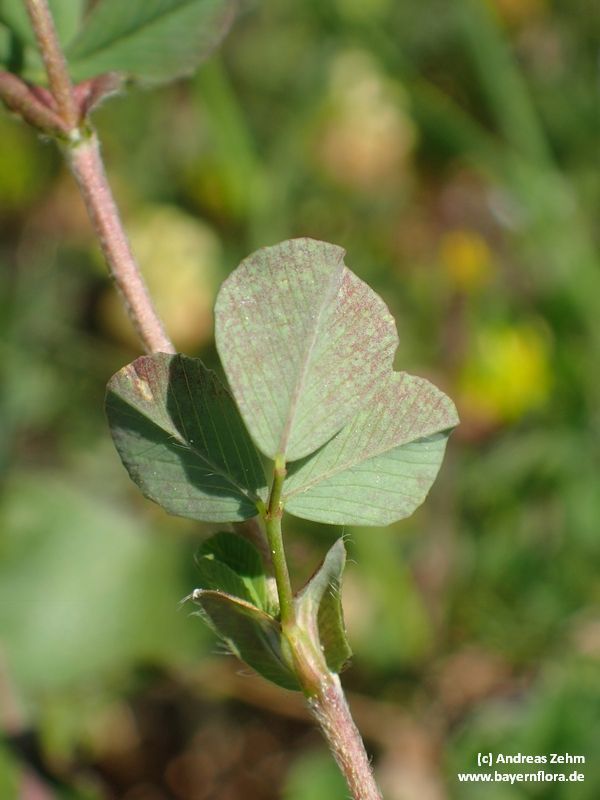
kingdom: Plantae
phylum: Tracheophyta
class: Magnoliopsida
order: Fabales
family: Fabaceae
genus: Trifolium
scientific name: Trifolium campestre
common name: Field clover
